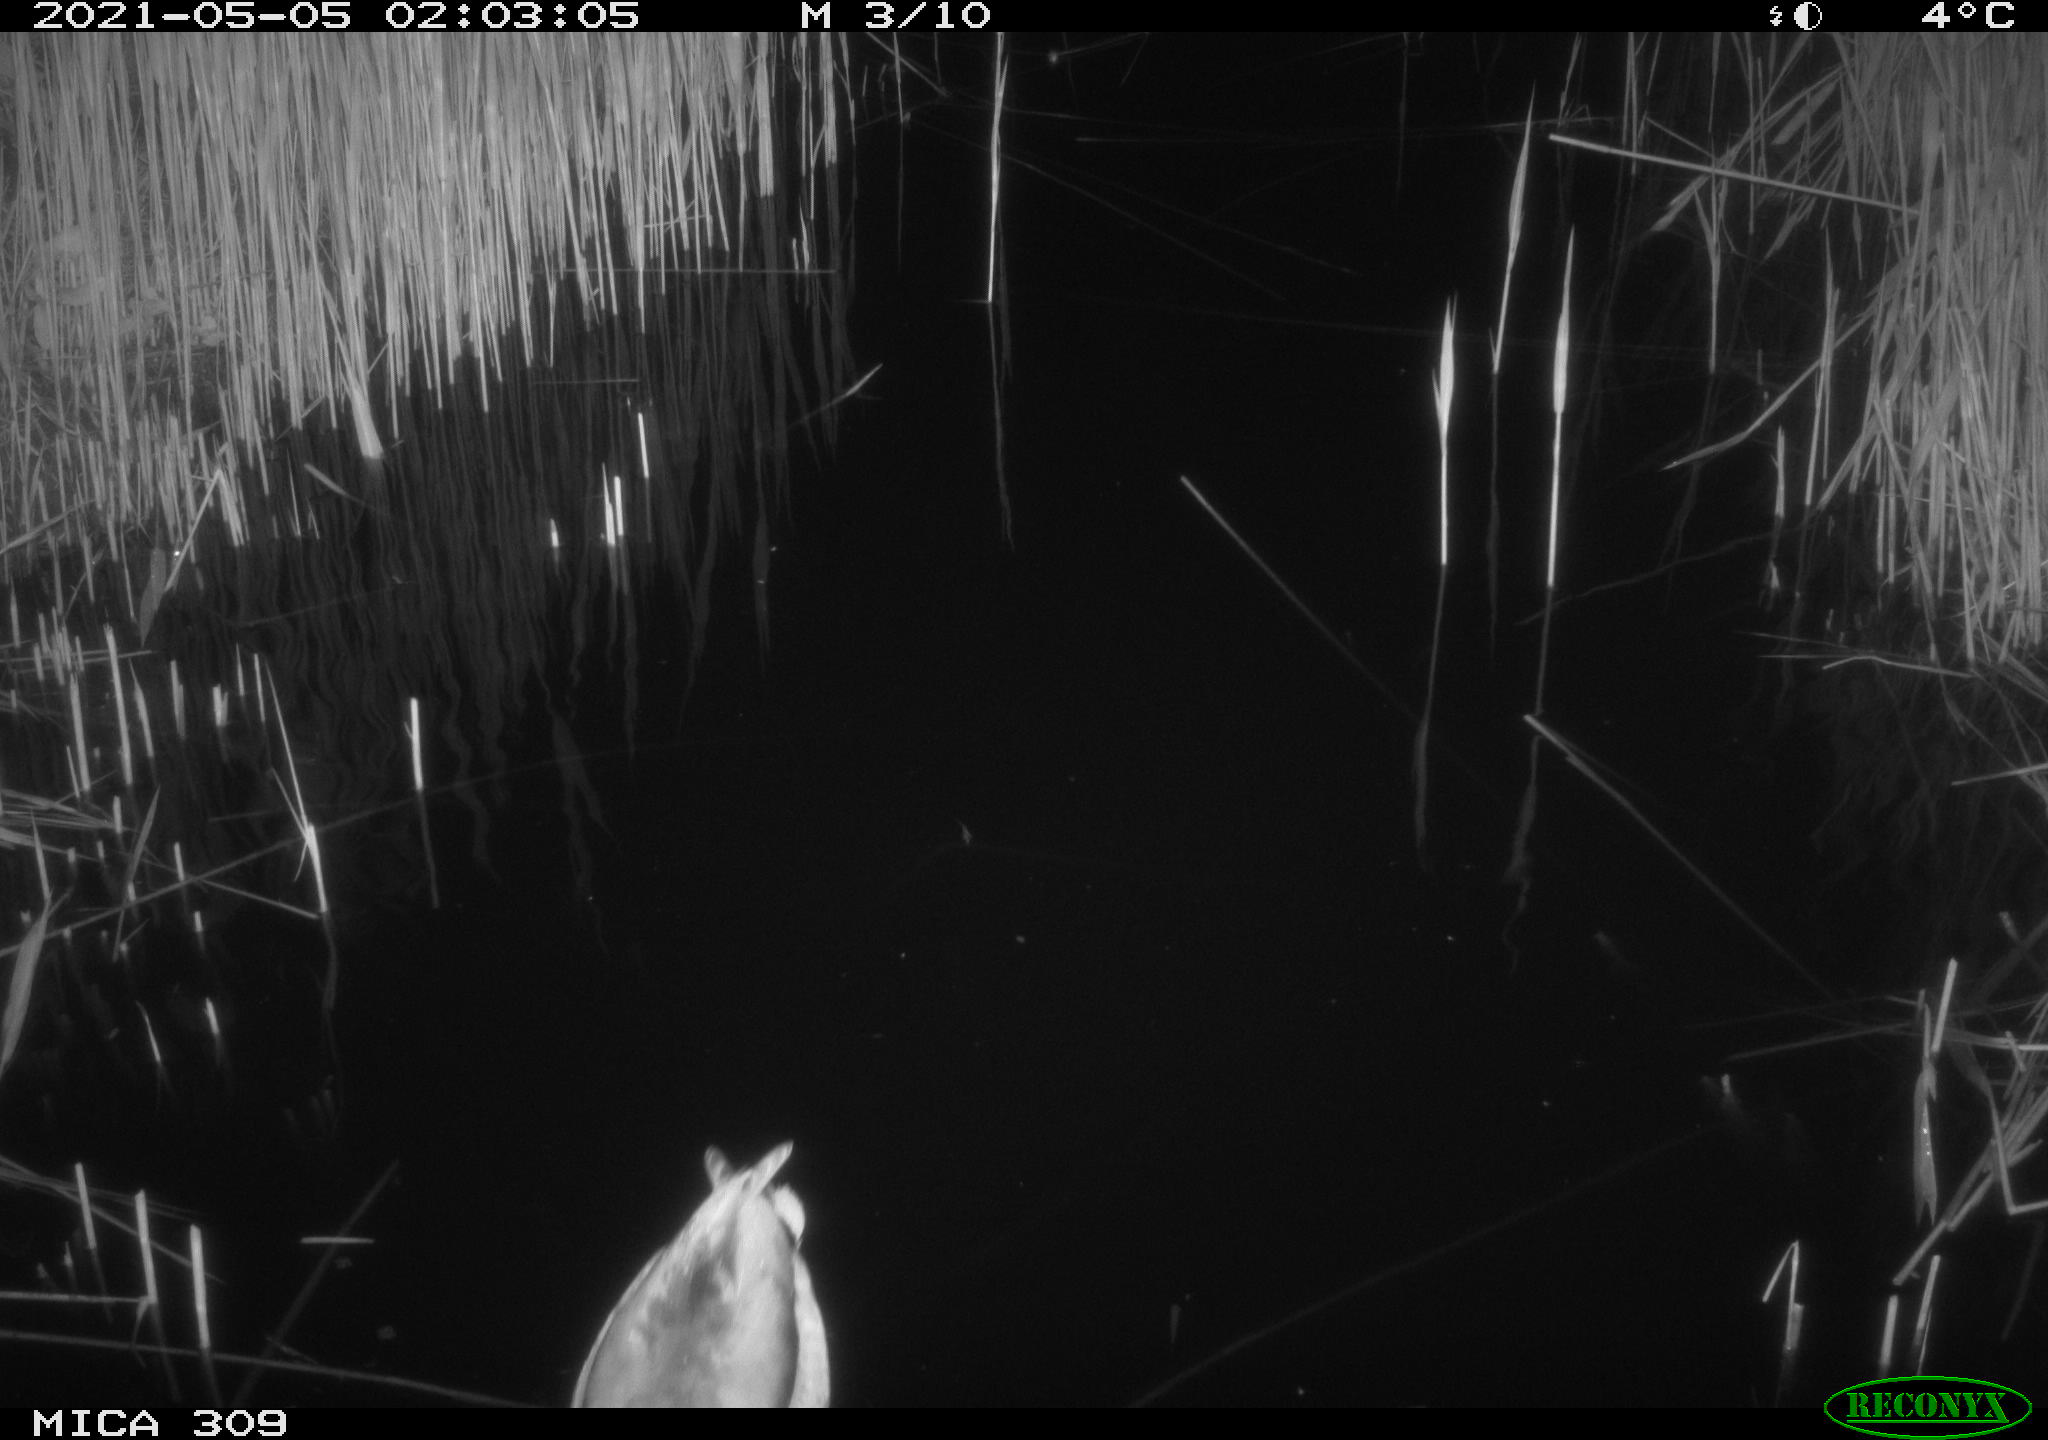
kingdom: Animalia
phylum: Chordata
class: Aves
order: Anseriformes
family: Anatidae
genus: Anas
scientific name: Anas platyrhynchos
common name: Mallard
